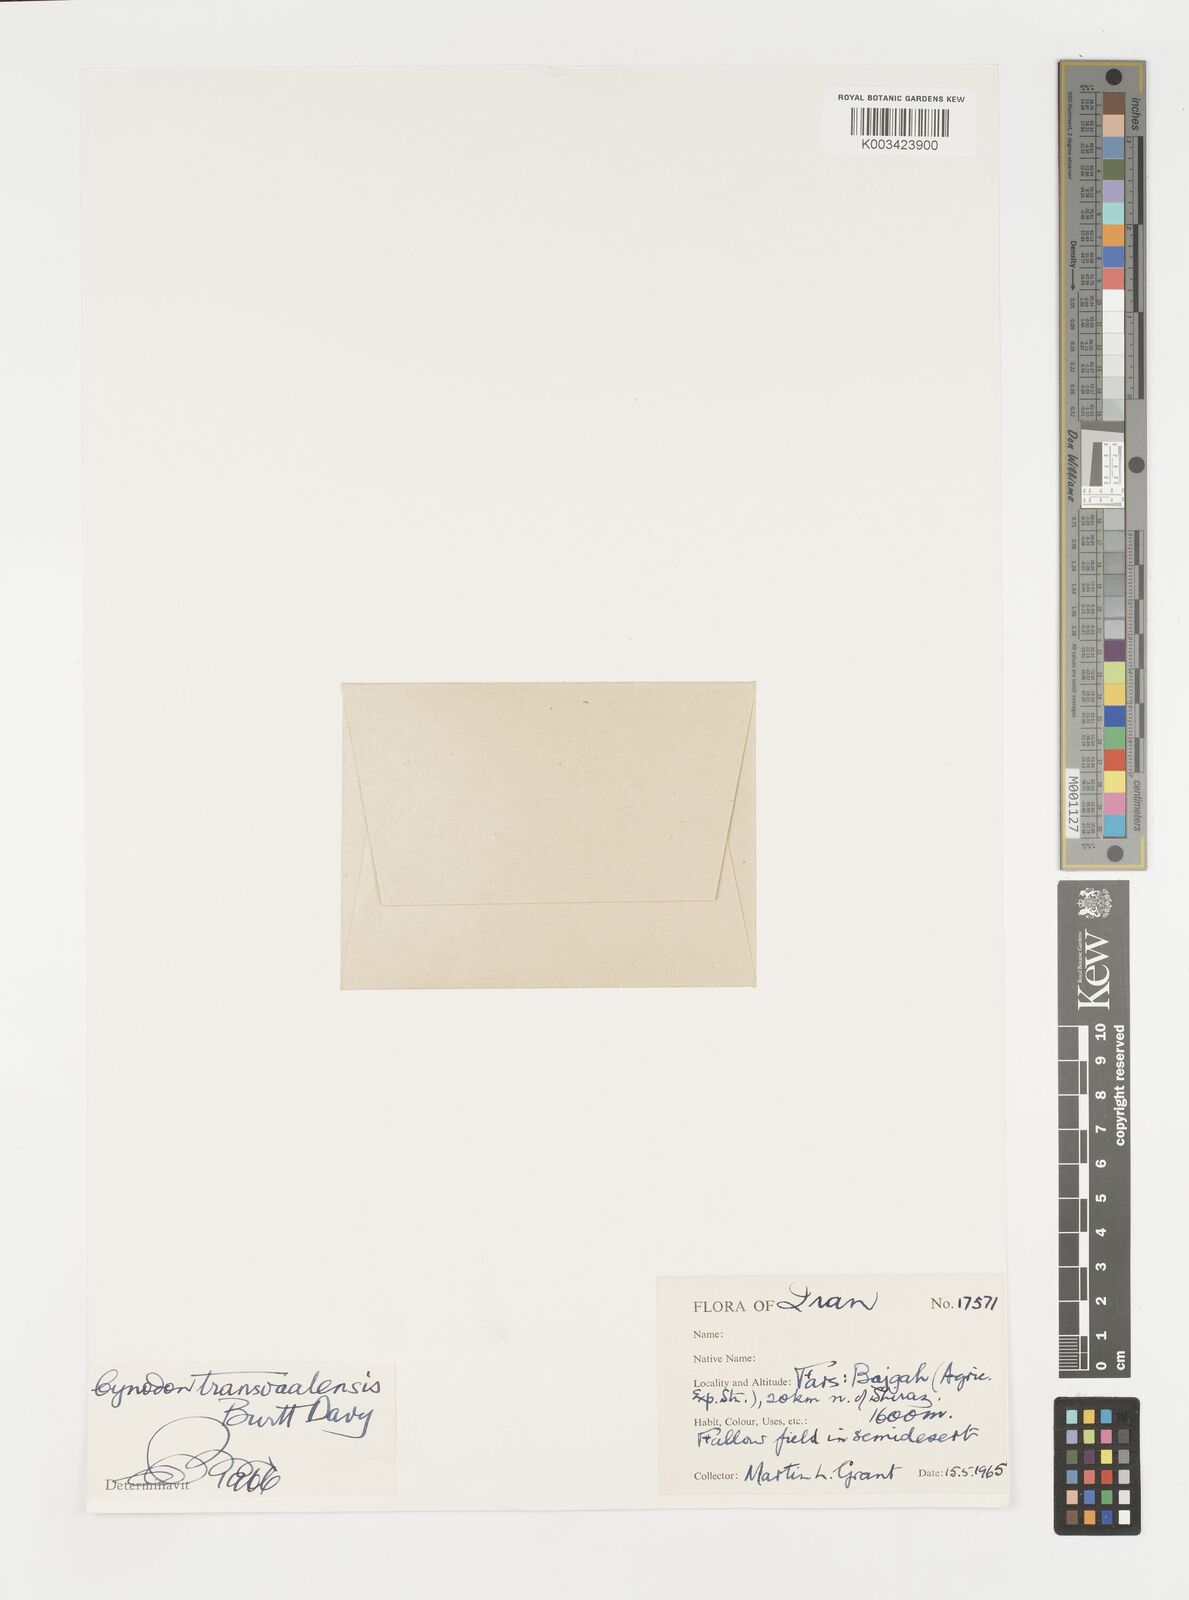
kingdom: Plantae
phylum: Tracheophyta
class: Liliopsida
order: Poales
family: Poaceae
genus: Cynodon
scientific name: Cynodon transvaalensis
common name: African bermuda grass
